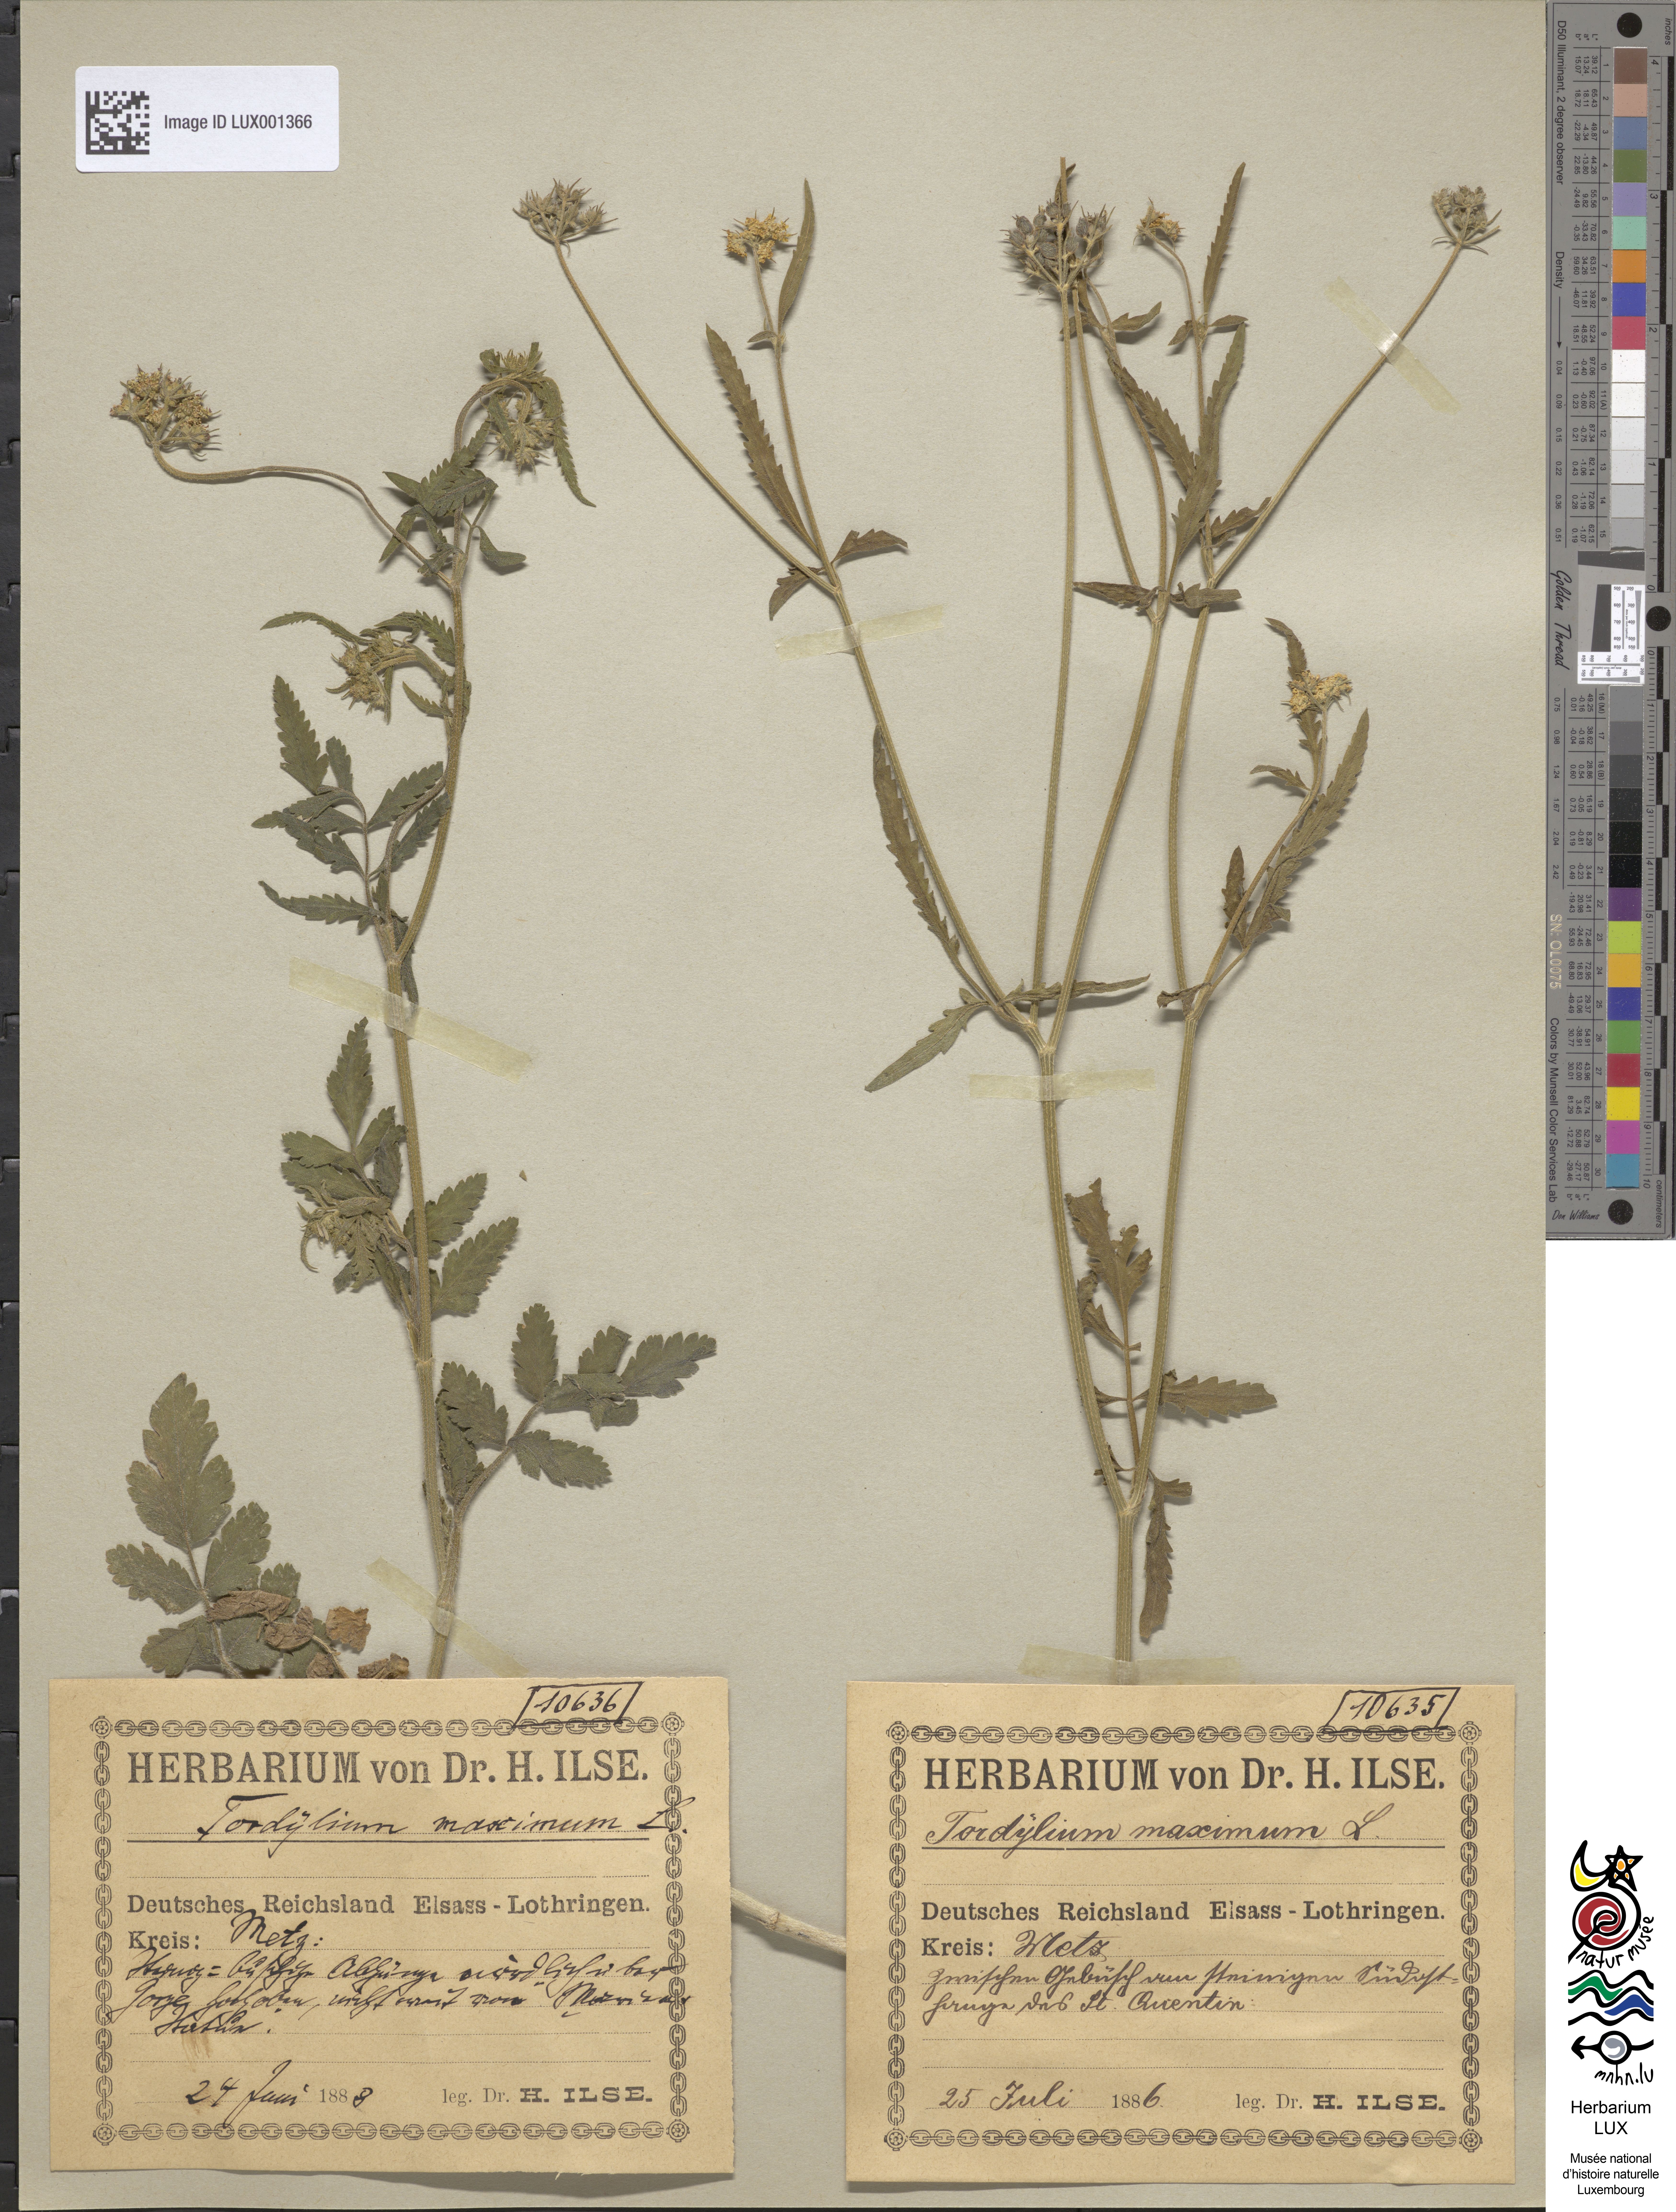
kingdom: Plantae
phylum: Tracheophyta
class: Magnoliopsida
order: Apiales
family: Apiaceae
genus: Tordylium
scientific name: Tordylium maximum
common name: Hartwort
